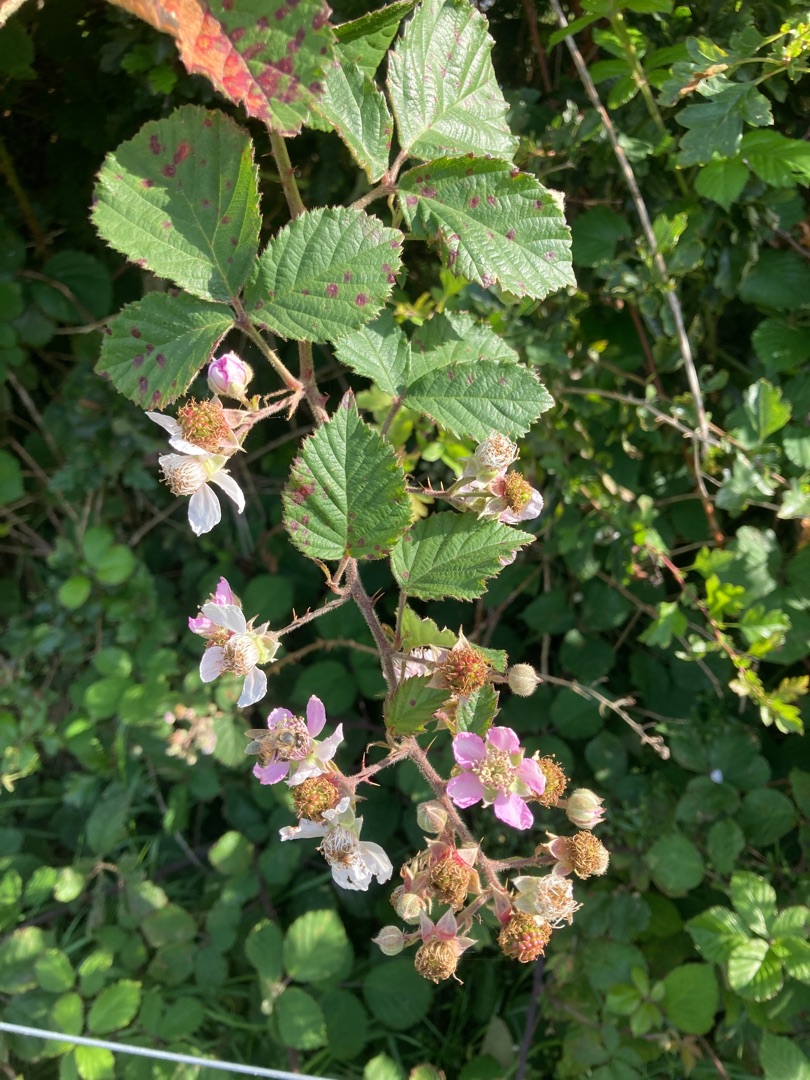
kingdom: Plantae
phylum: Tracheophyta
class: Magnoliopsida
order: Rosales
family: Rosaceae
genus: Rubus
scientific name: Rubus
